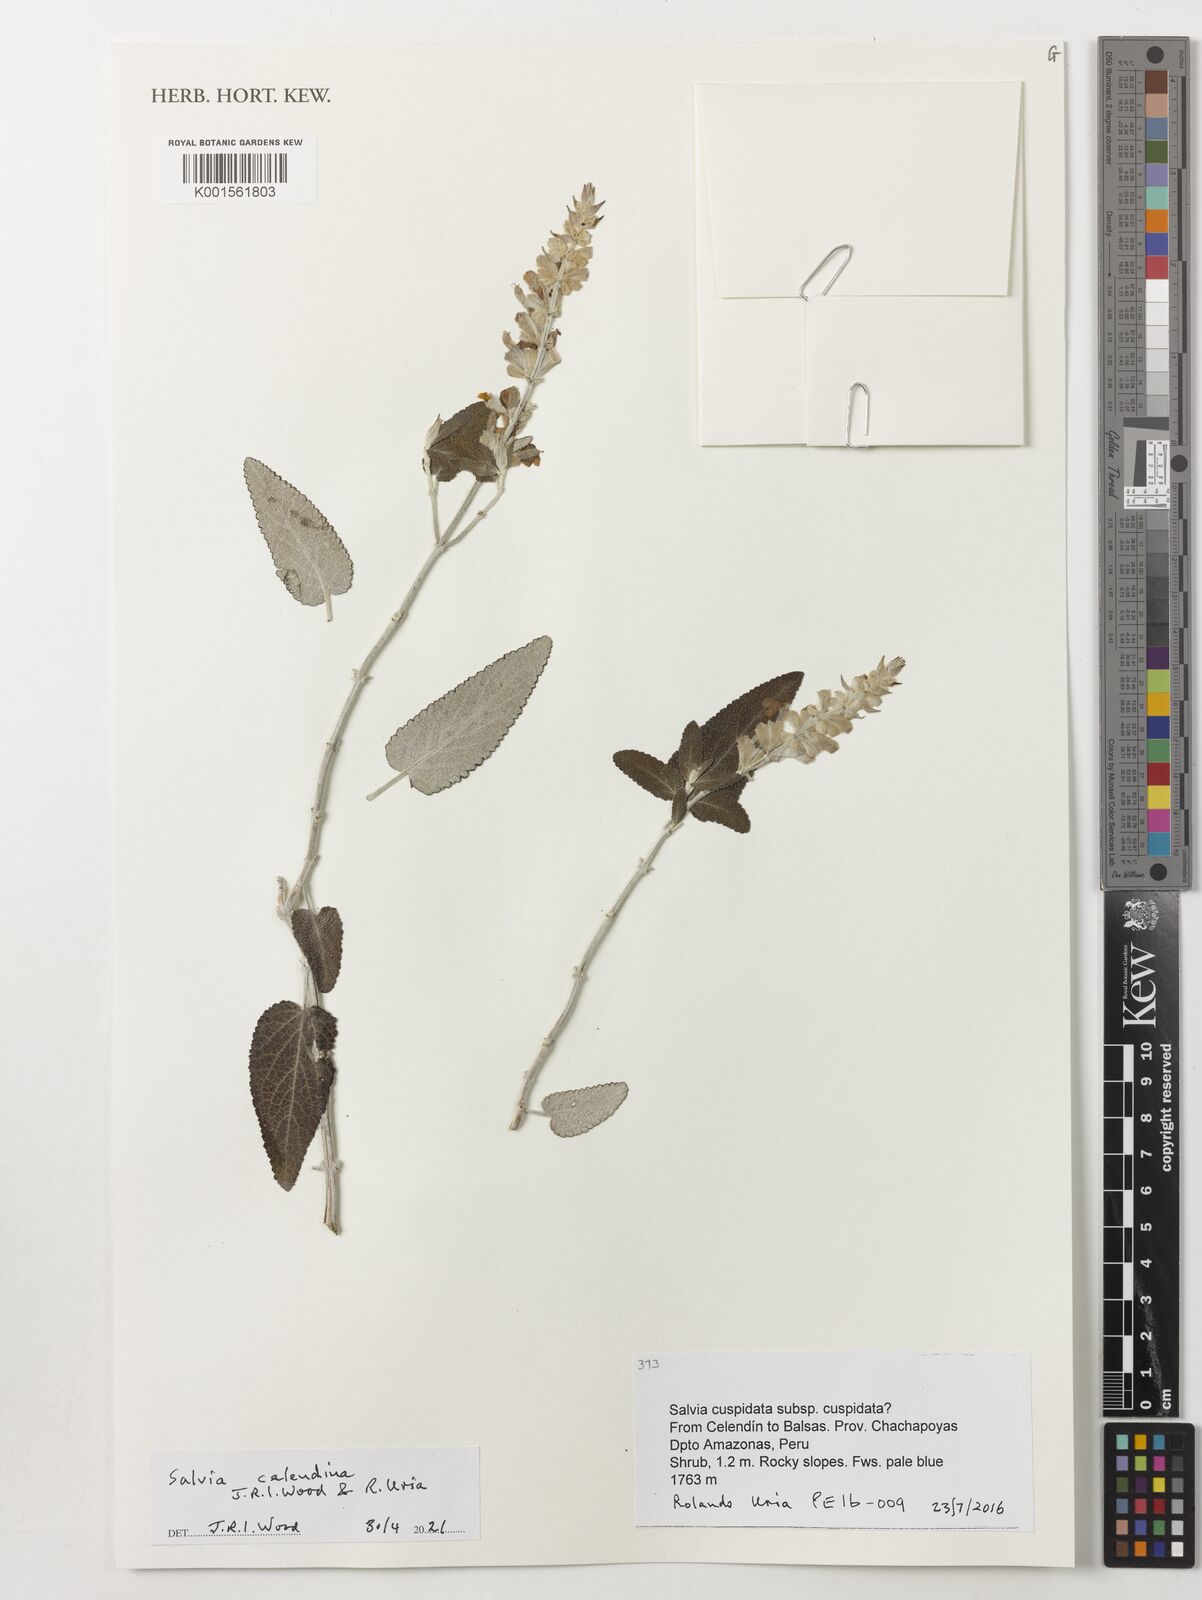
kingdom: Plantae
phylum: Tracheophyta
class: Magnoliopsida
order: Lamiales
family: Lamiaceae
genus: Salvia
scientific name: Salvia
